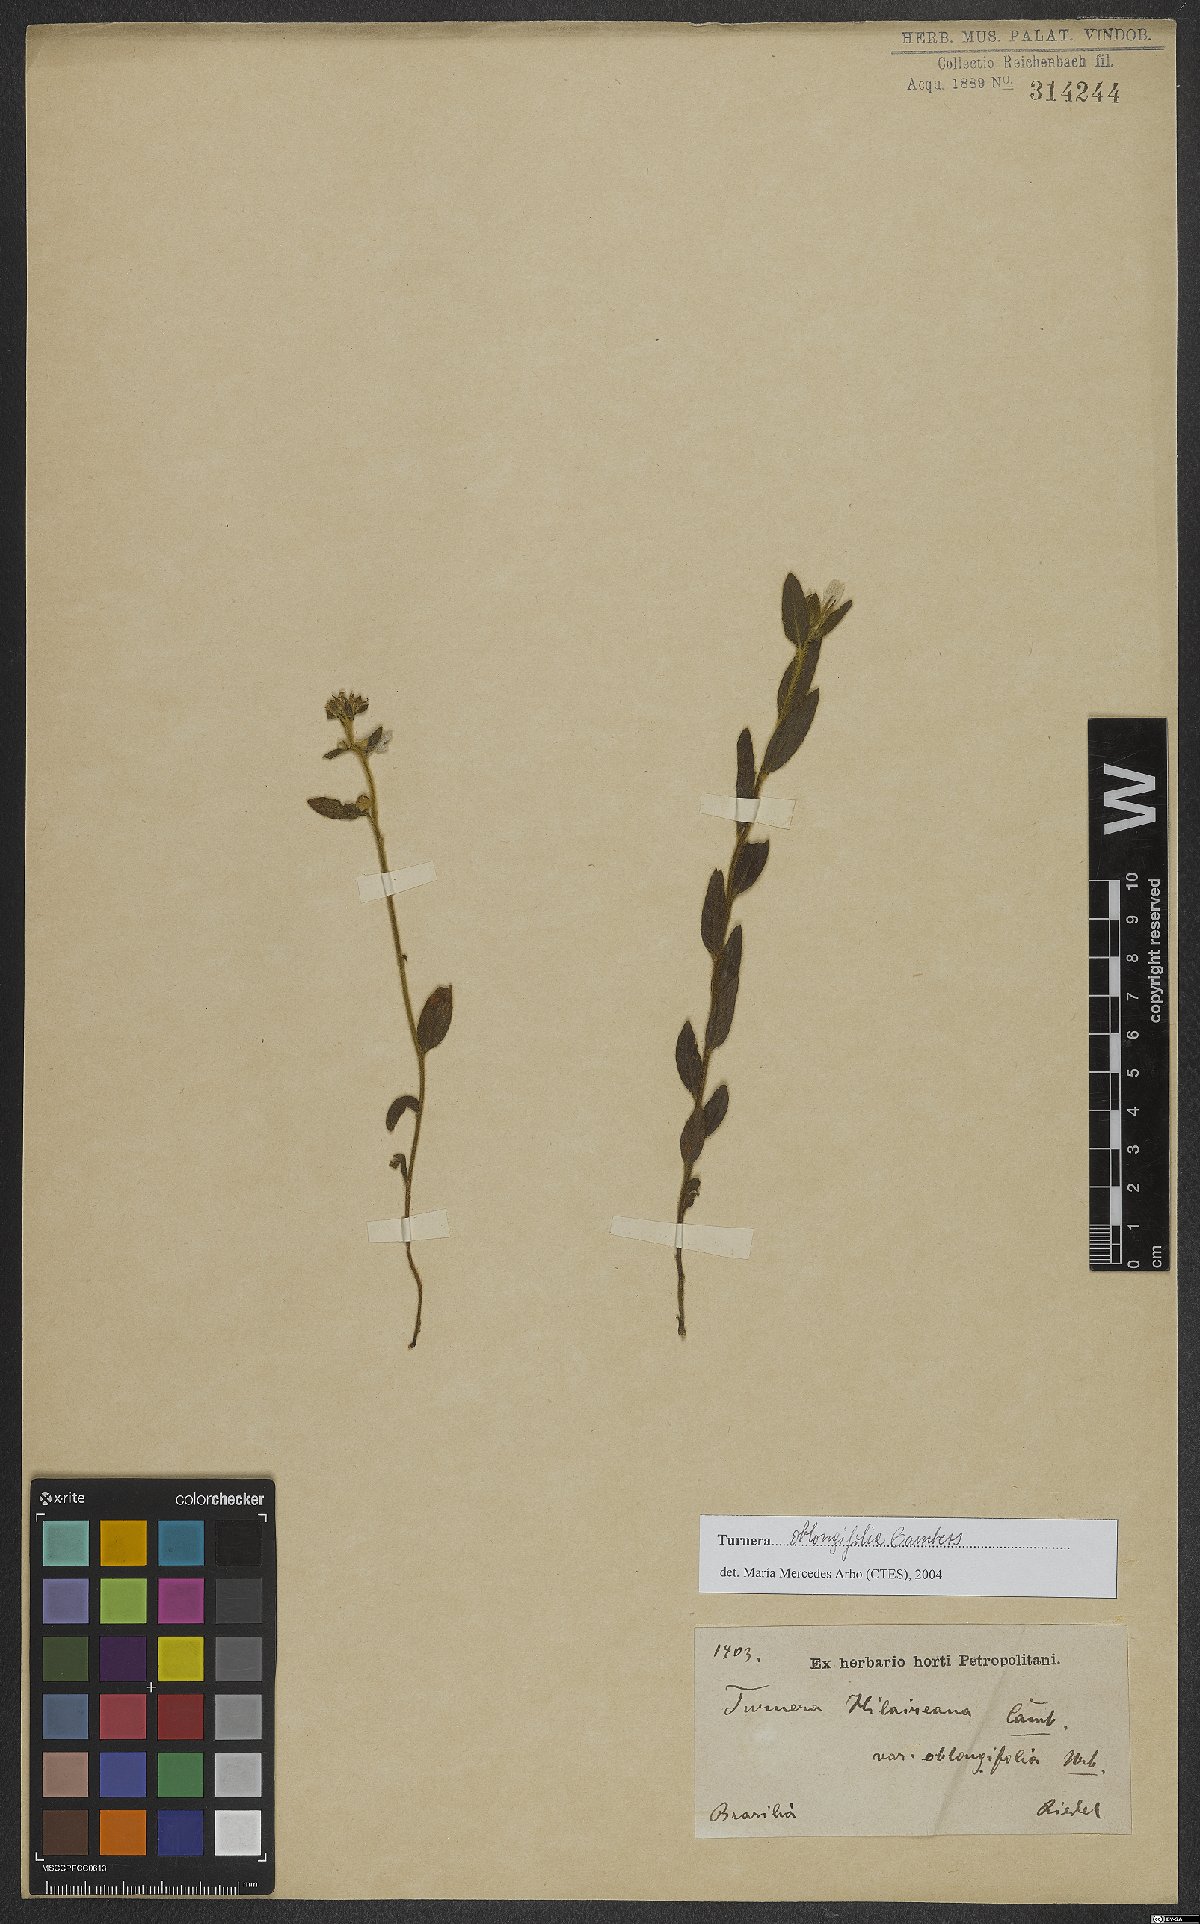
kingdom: Plantae
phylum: Tracheophyta
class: Magnoliopsida
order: Malpighiales
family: Turneraceae
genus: Turnera
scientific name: Turnera oblongifolia
